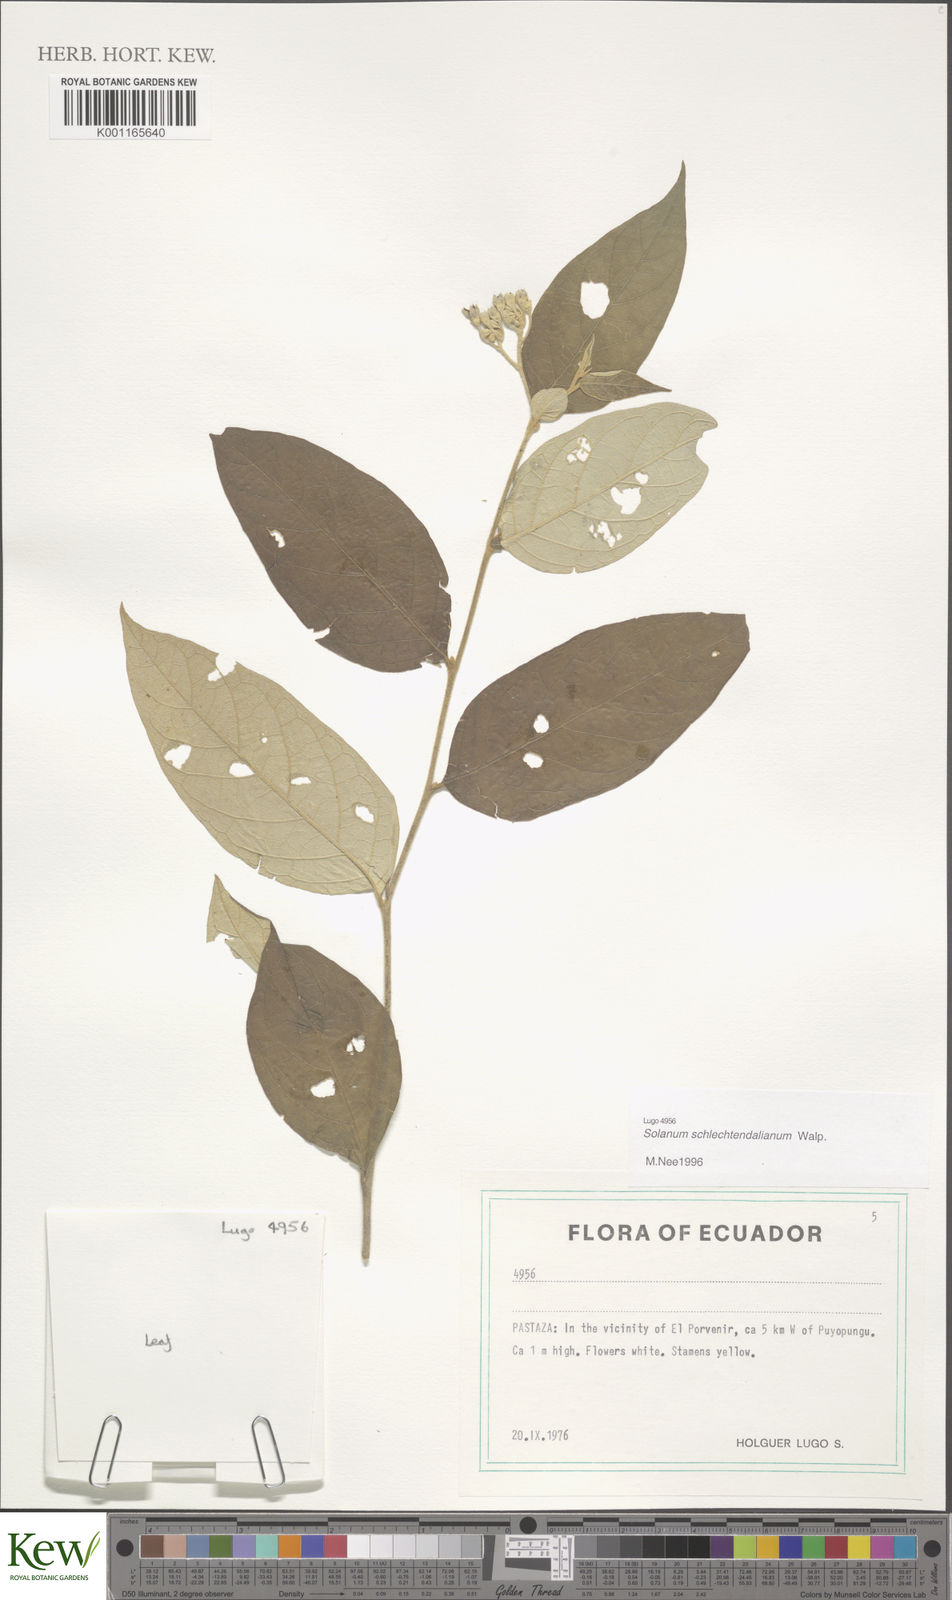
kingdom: Plantae
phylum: Tracheophyta
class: Magnoliopsida
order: Solanales
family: Solanaceae
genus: Solanum
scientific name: Solanum schlechtendalianum
